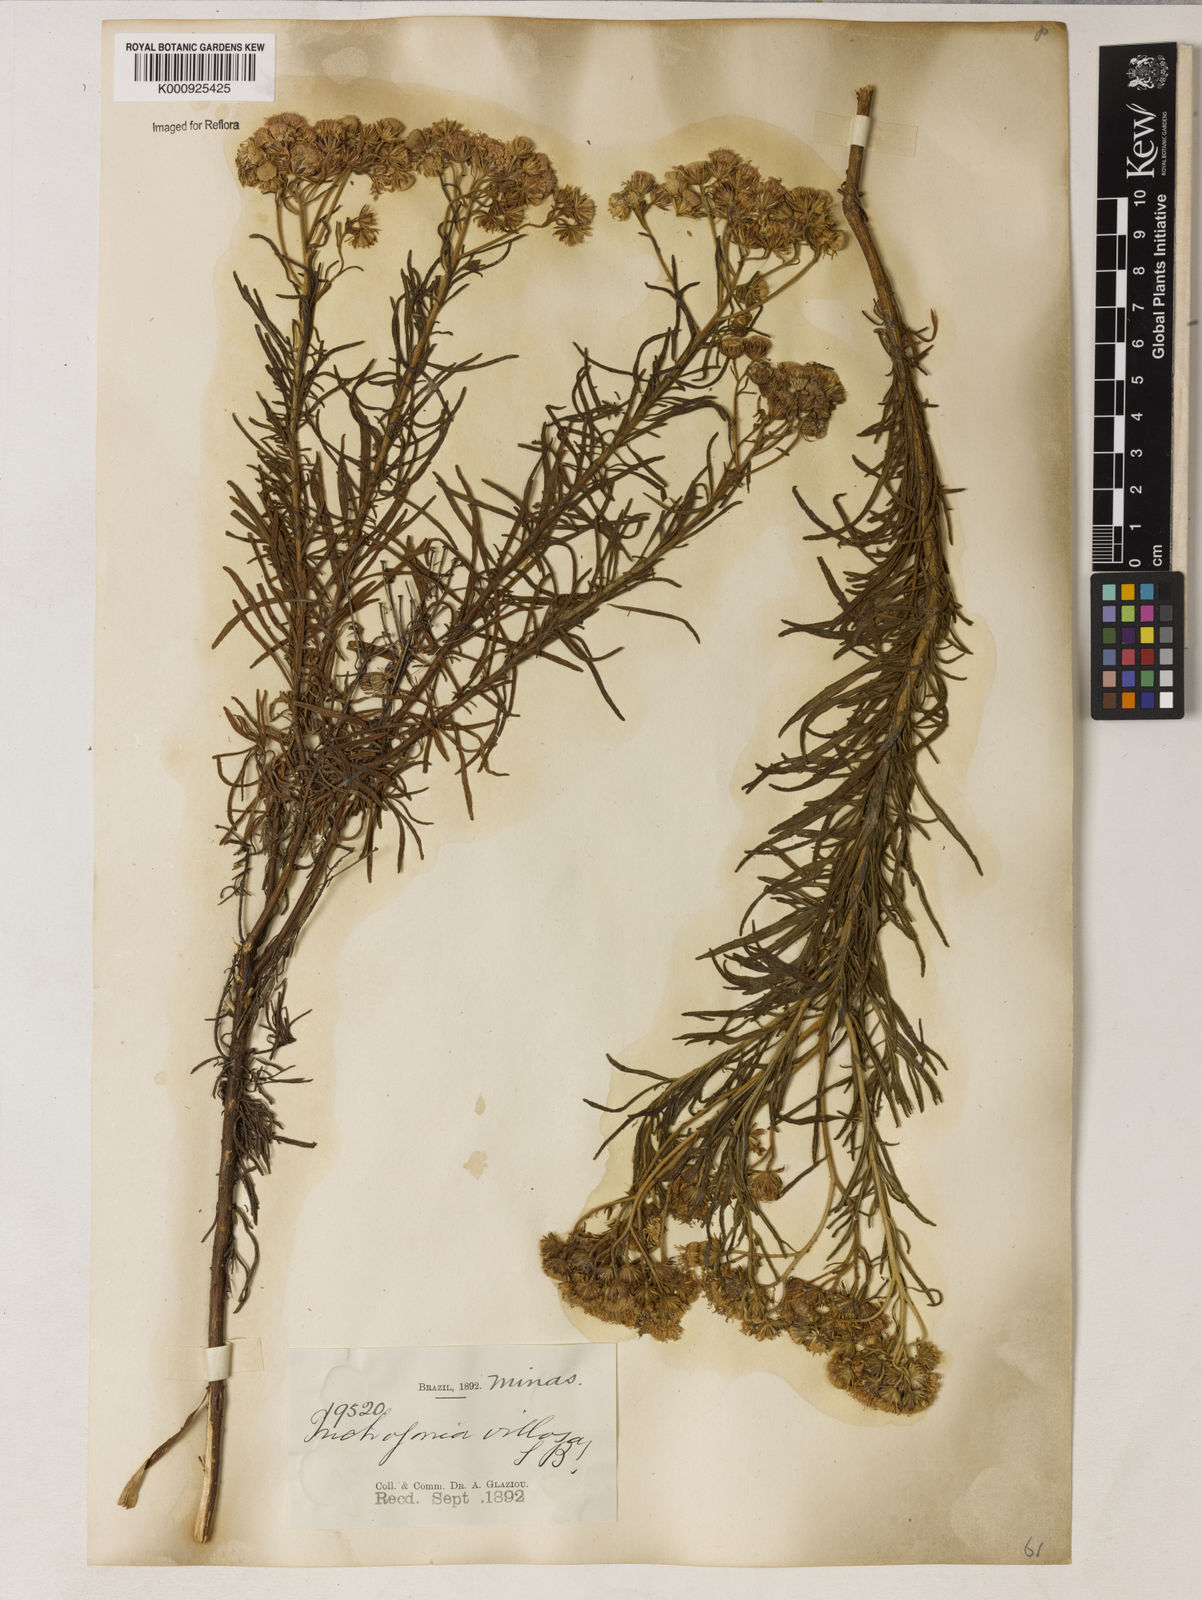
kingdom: Plantae
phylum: Tracheophyta
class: Magnoliopsida
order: Asterales
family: Asteraceae
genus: Trichogonia
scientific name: Trichogonia villosa
